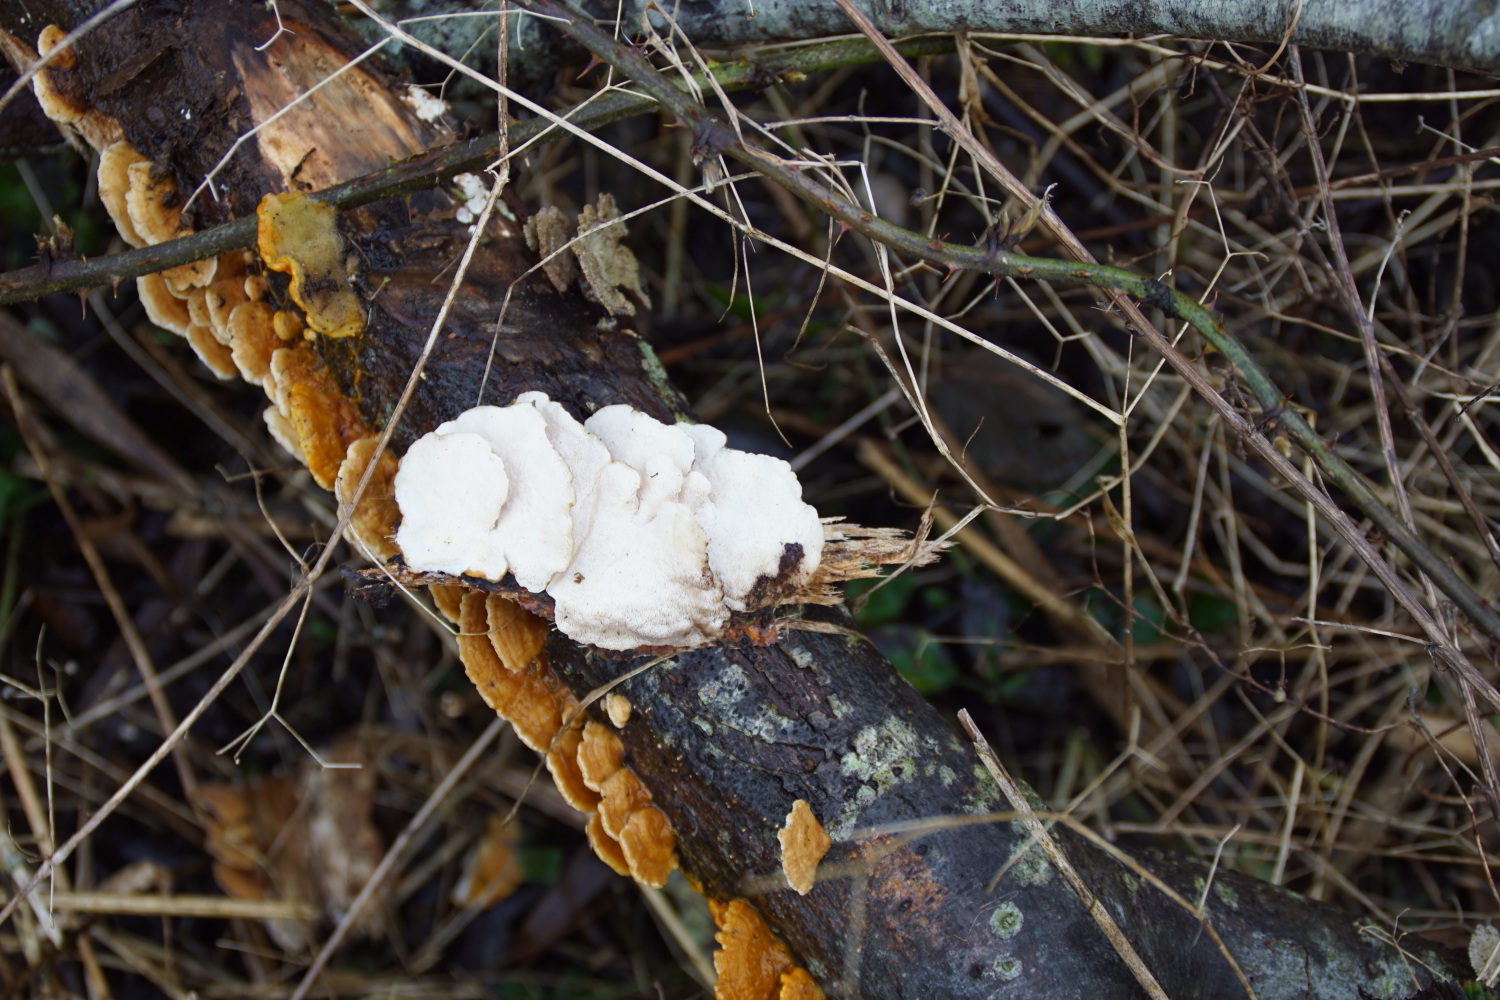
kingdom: Fungi
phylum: Basidiomycota
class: Agaricomycetes
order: Polyporales
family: Polyporaceae
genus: Trametes
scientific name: Trametes ochracea
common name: bæltet læderporesvamp
